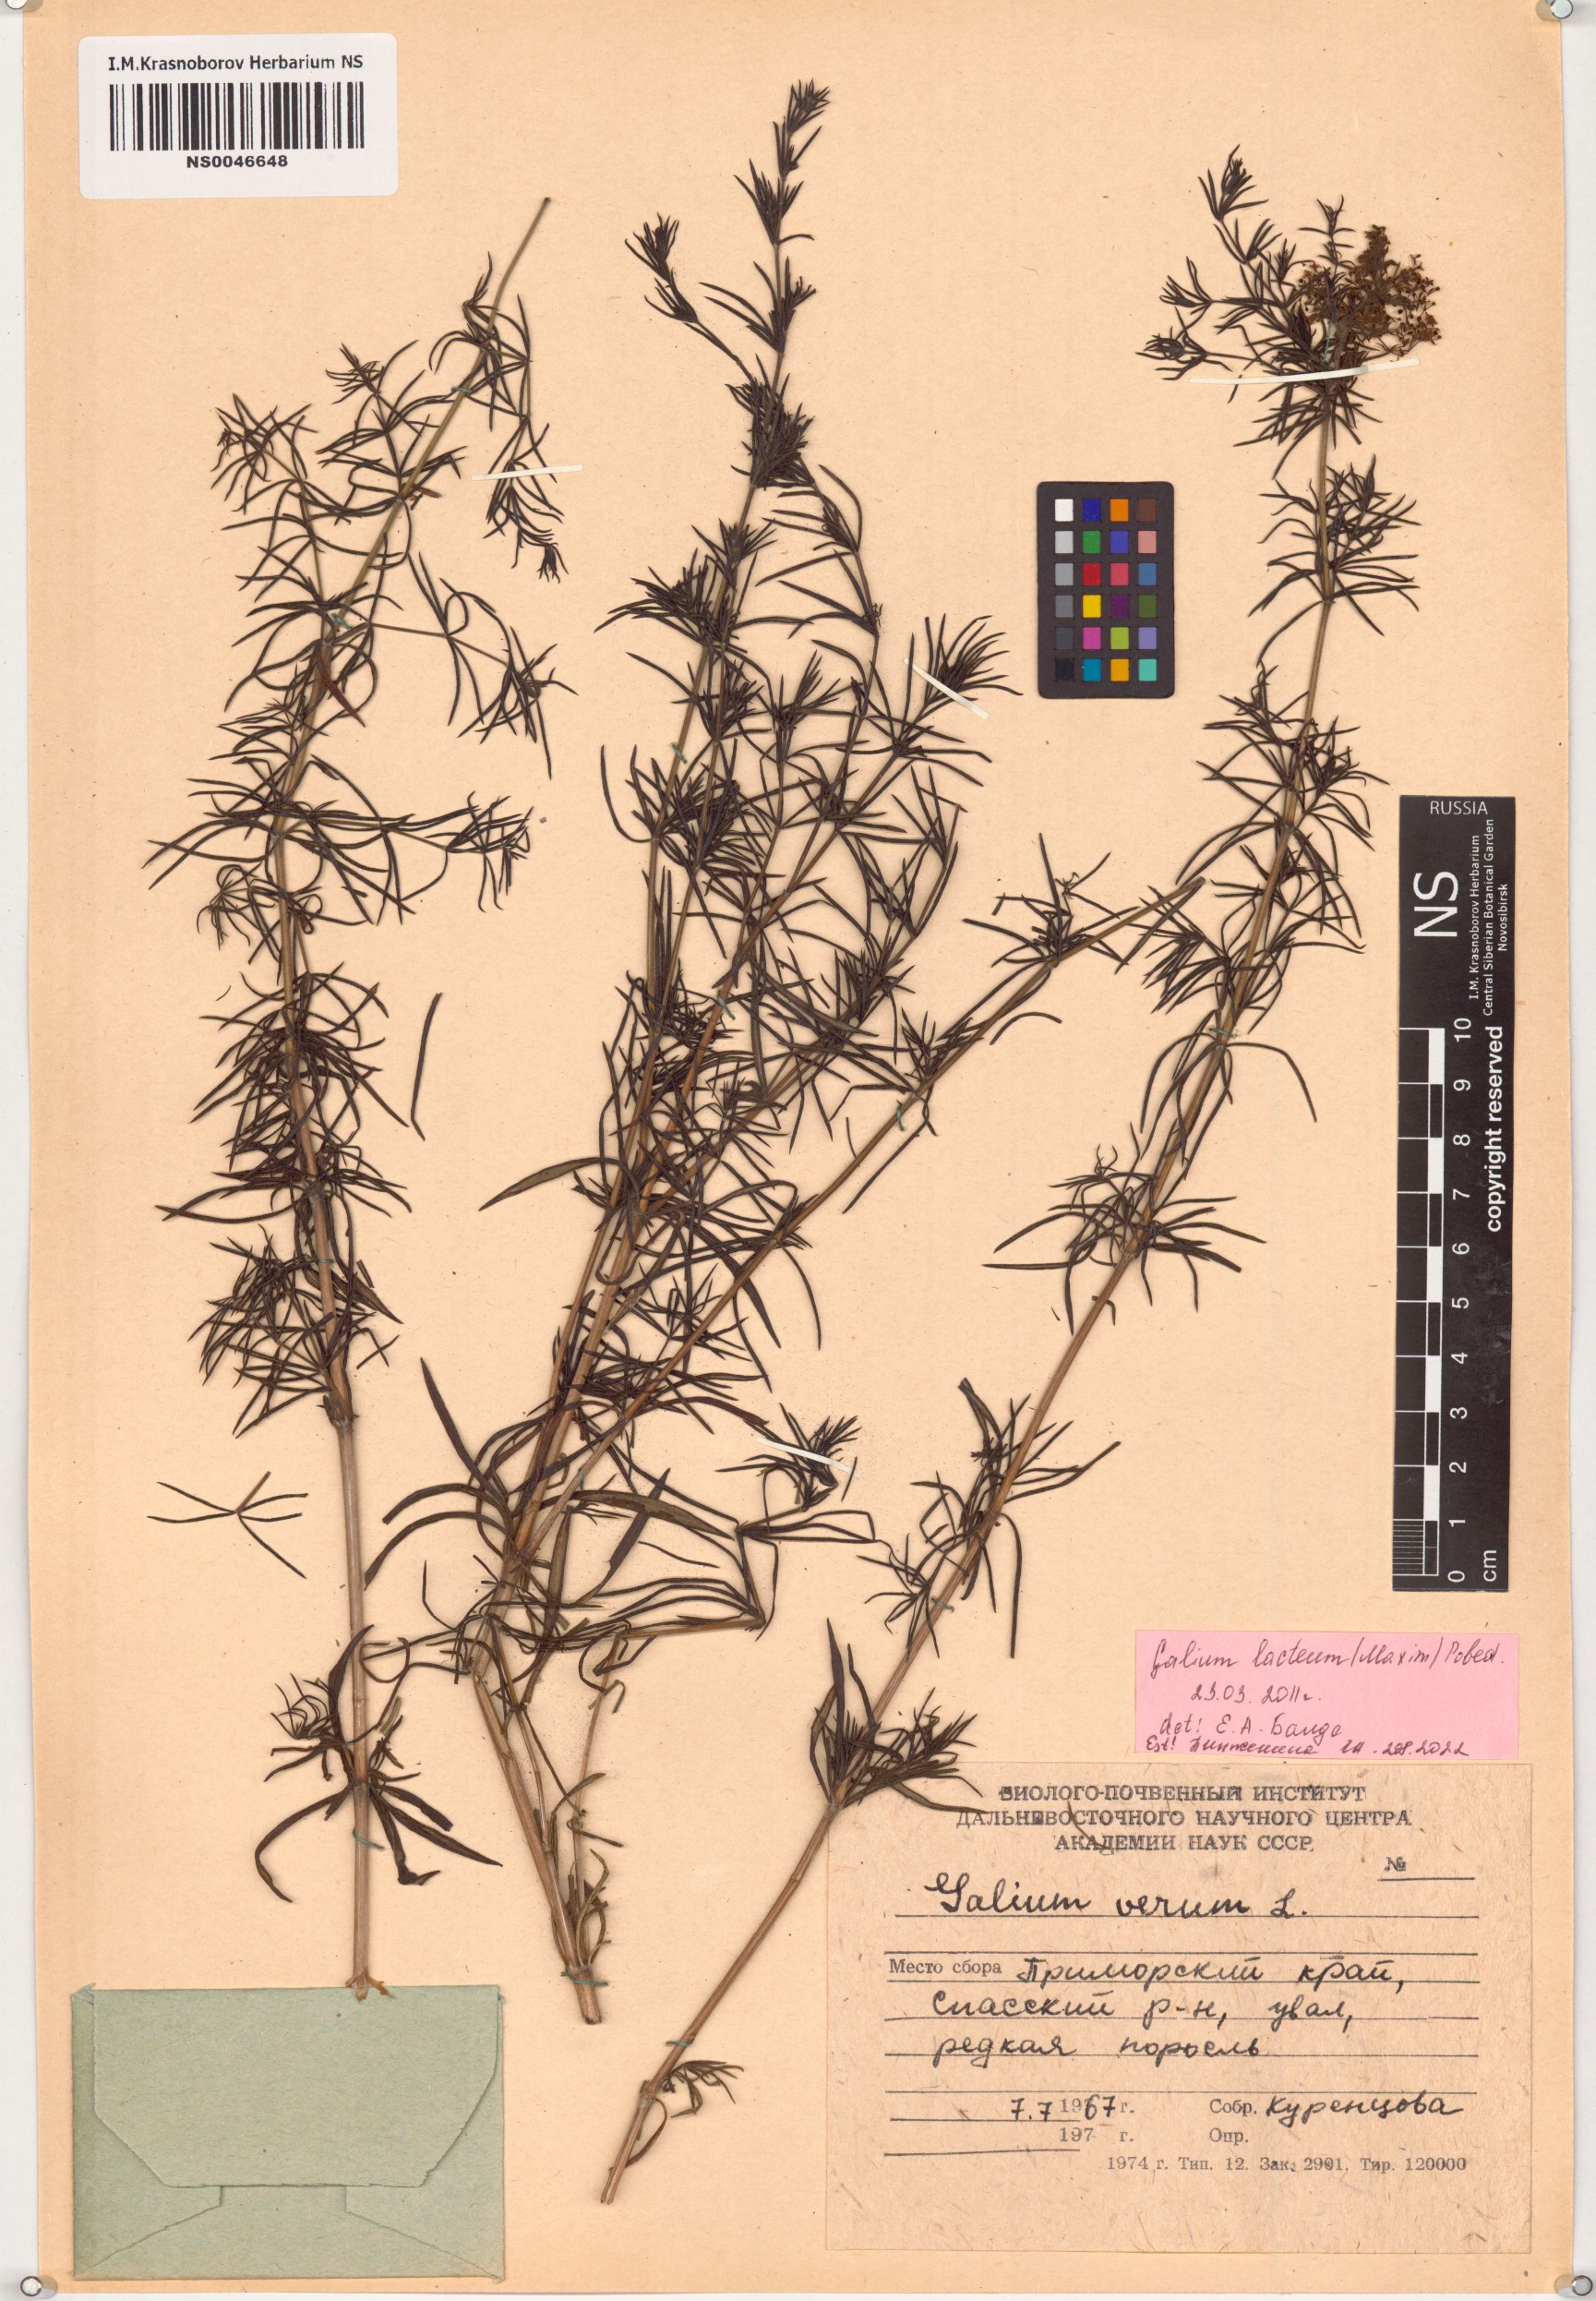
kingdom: Plantae
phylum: Tracheophyta
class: Magnoliopsida
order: Gentianales
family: Rubiaceae
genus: Galium
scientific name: Galium verum
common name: Lady's bedstraw
